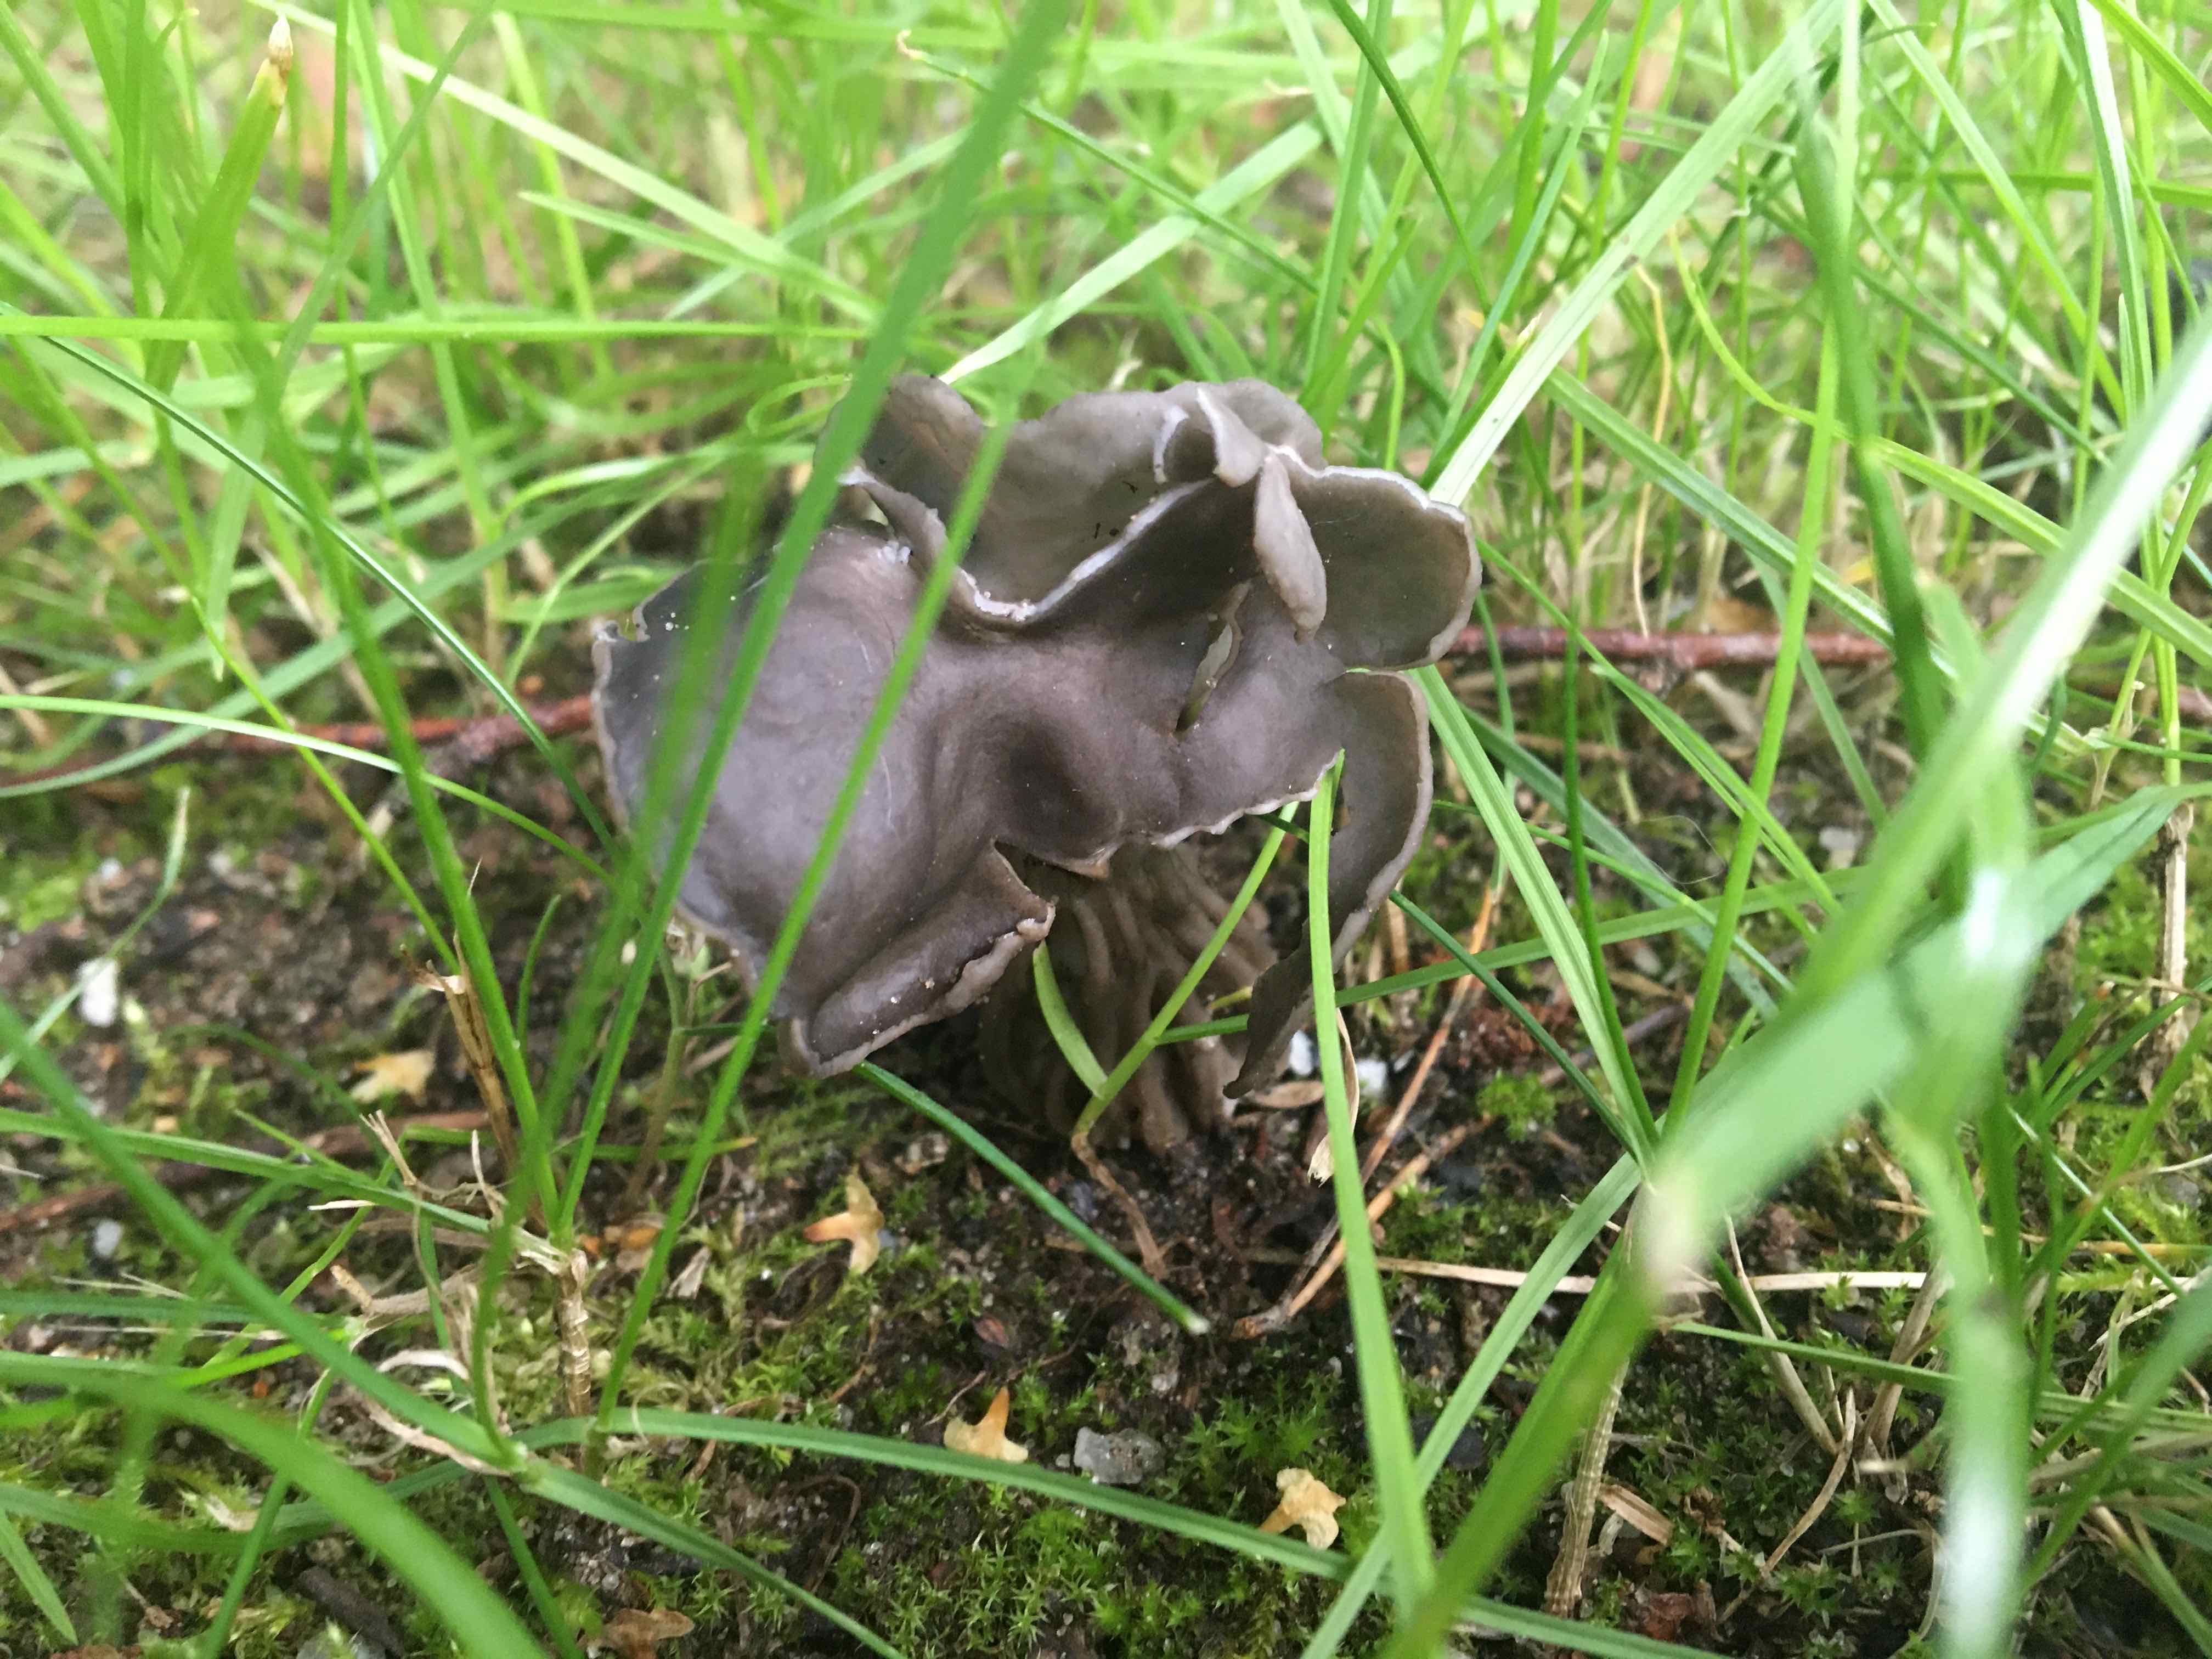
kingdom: Fungi
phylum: Ascomycota
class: Pezizomycetes
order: Pezizales
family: Helvellaceae
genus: Helvella
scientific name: Helvella lacunosa
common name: grubet foldhat
